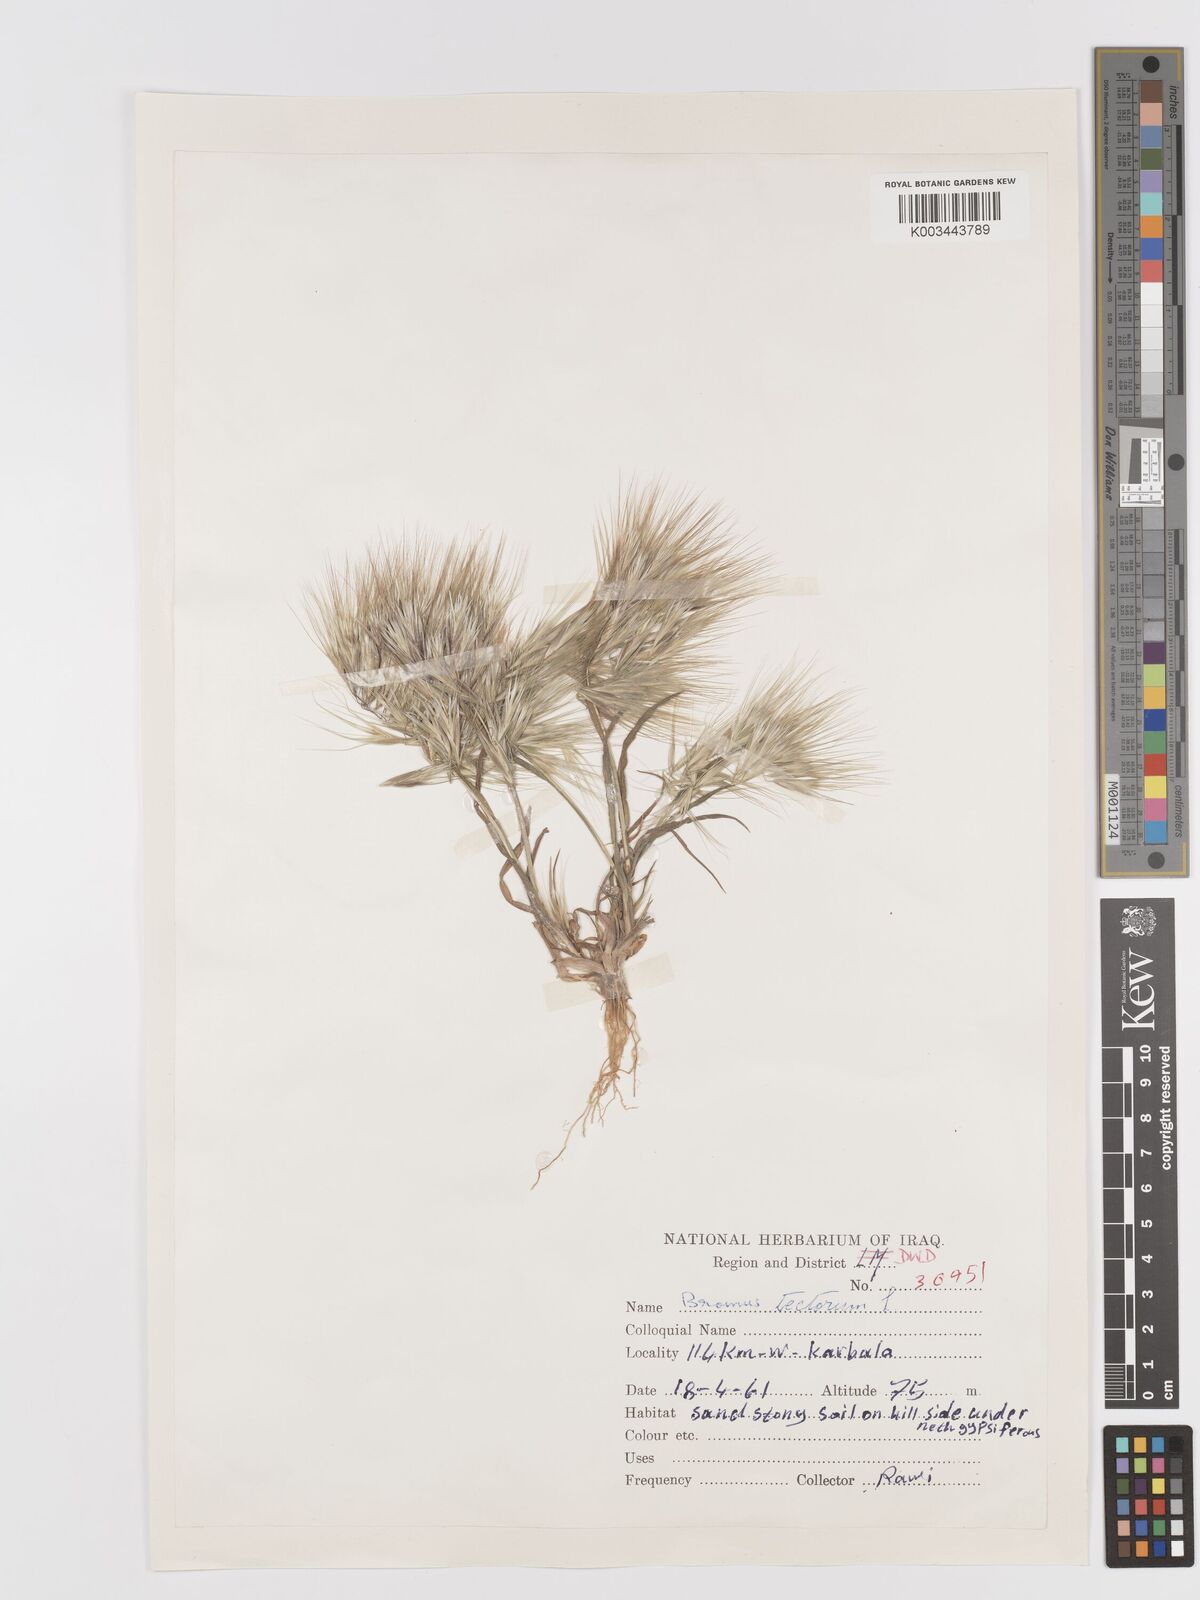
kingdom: Plantae
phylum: Tracheophyta
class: Liliopsida
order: Poales
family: Poaceae
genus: Bromus
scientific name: Bromus tectorum
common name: Cheatgrass
